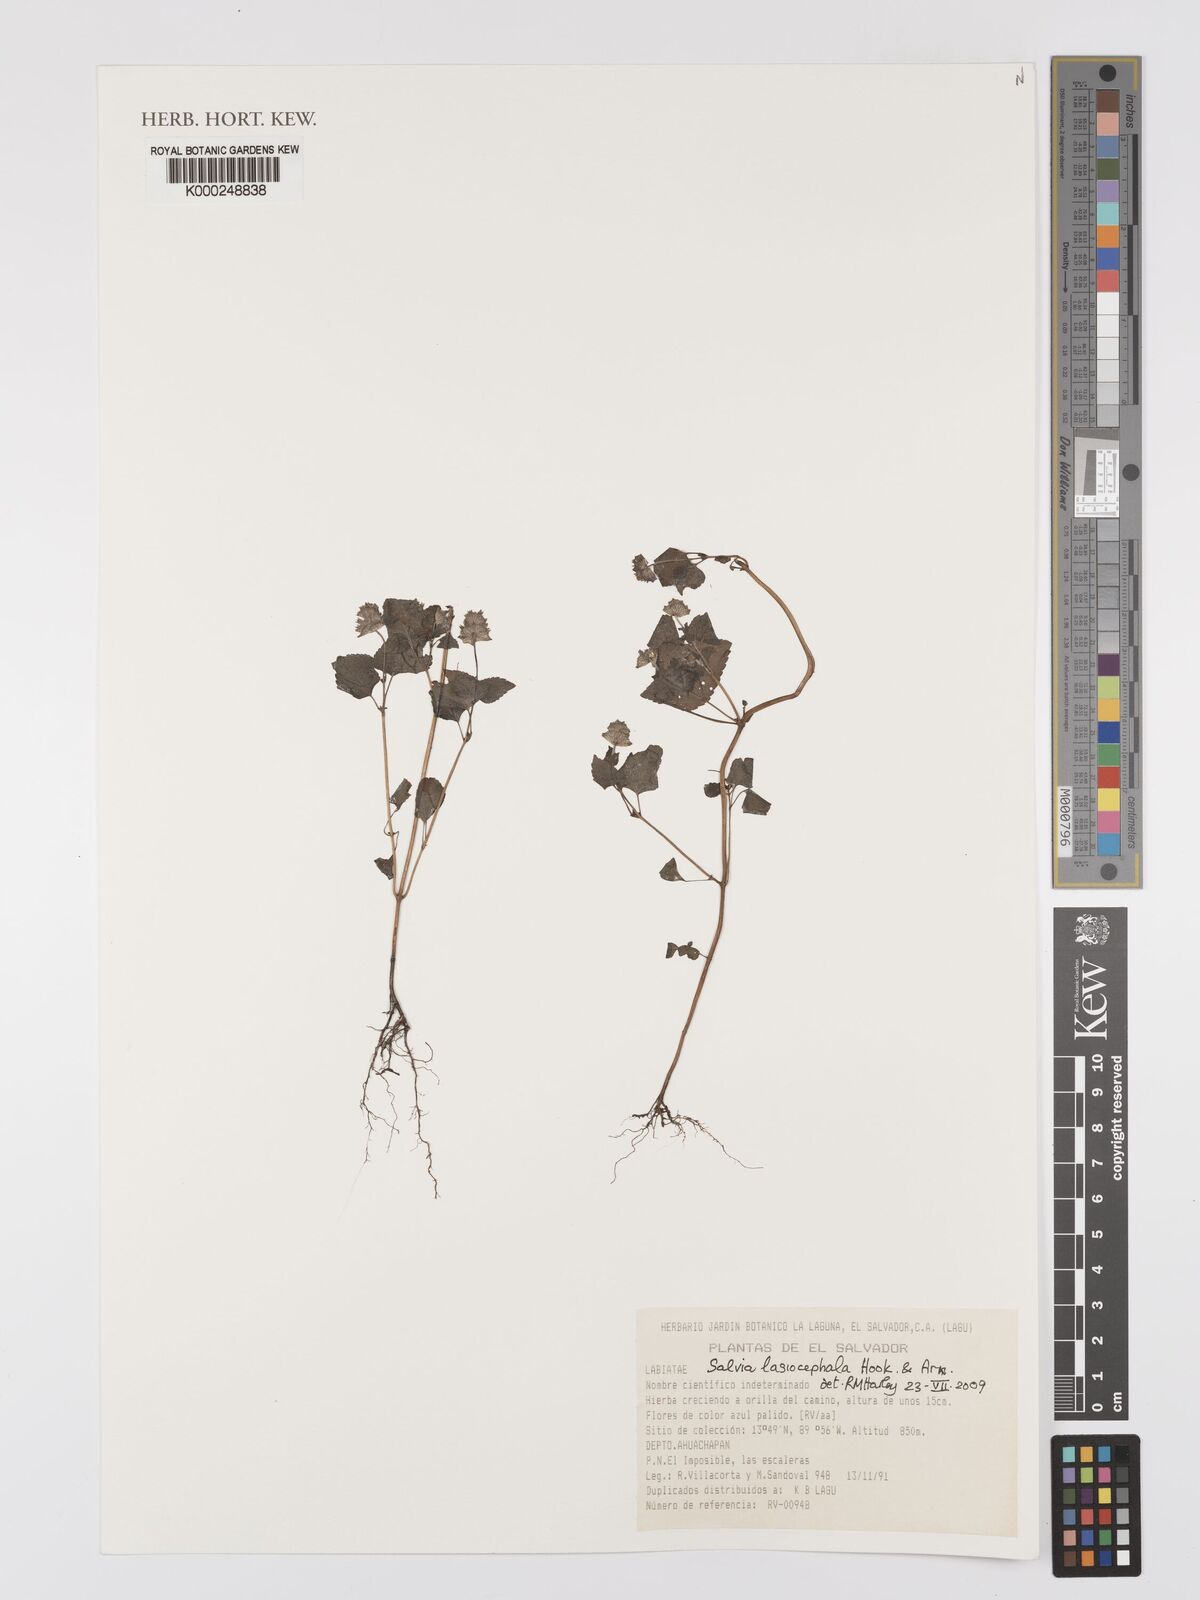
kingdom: Plantae
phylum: Tracheophyta
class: Magnoliopsida
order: Lamiales
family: Lamiaceae
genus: Salvia
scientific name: Salvia lasiocephala
